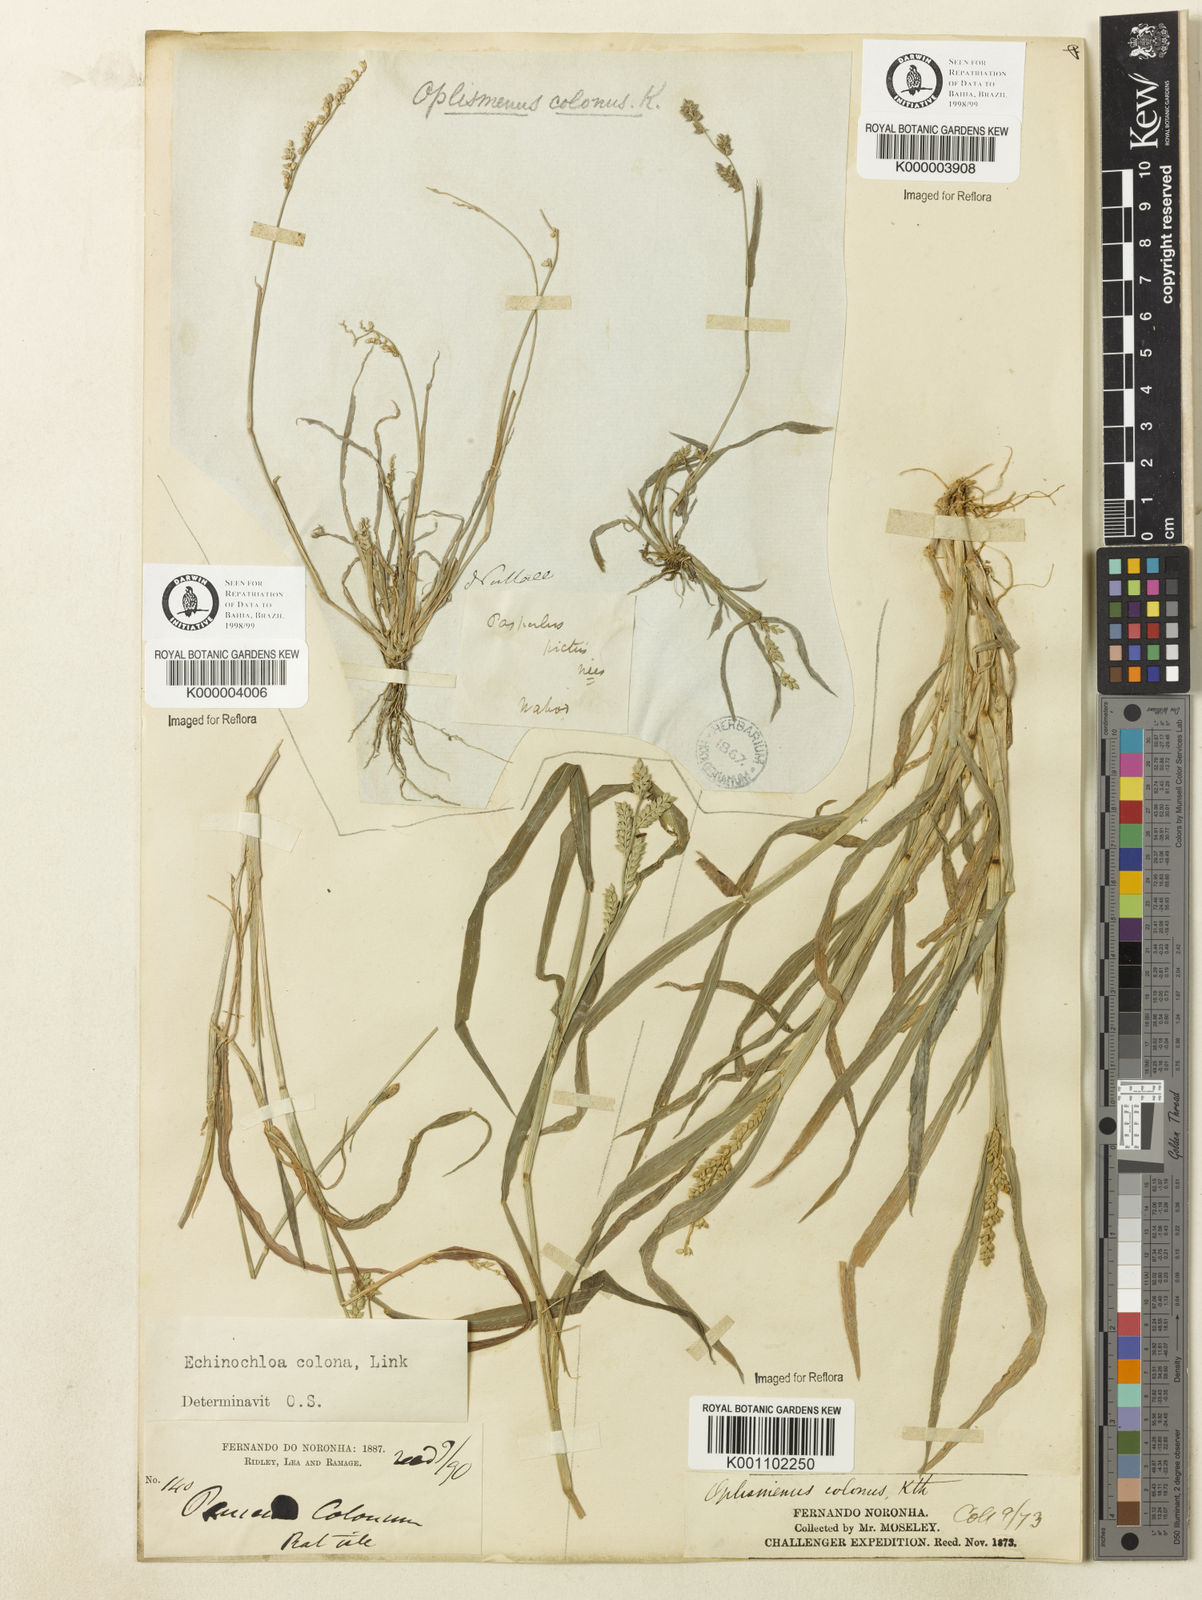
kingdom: Plantae
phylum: Tracheophyta
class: Liliopsida
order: Poales
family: Poaceae
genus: Echinochloa
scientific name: Echinochloa colonum
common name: Jungle rice
